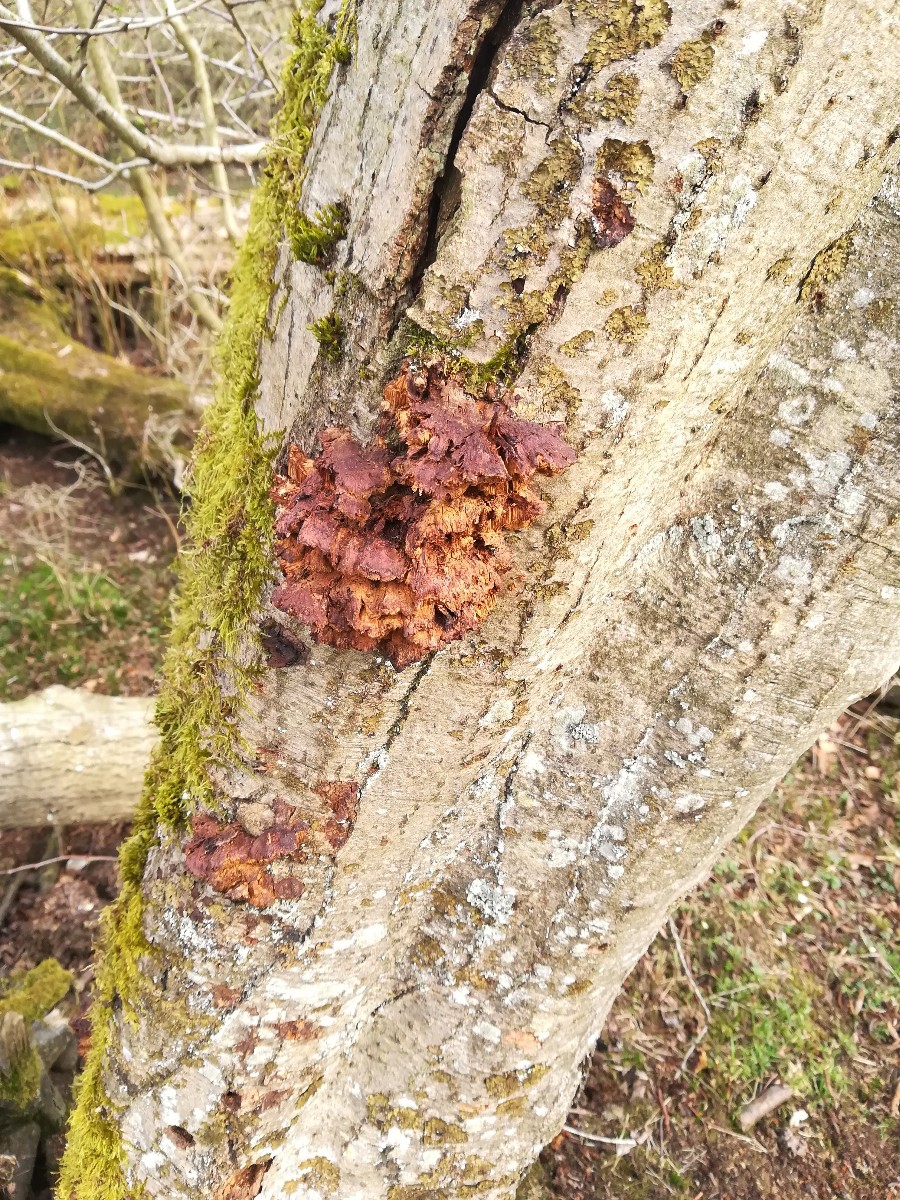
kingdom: Fungi
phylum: Basidiomycota
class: Agaricomycetes
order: Hymenochaetales
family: Hymenochaetaceae
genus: Xanthoporia
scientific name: Xanthoporia radiata
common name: elle-spejlporesvamp
